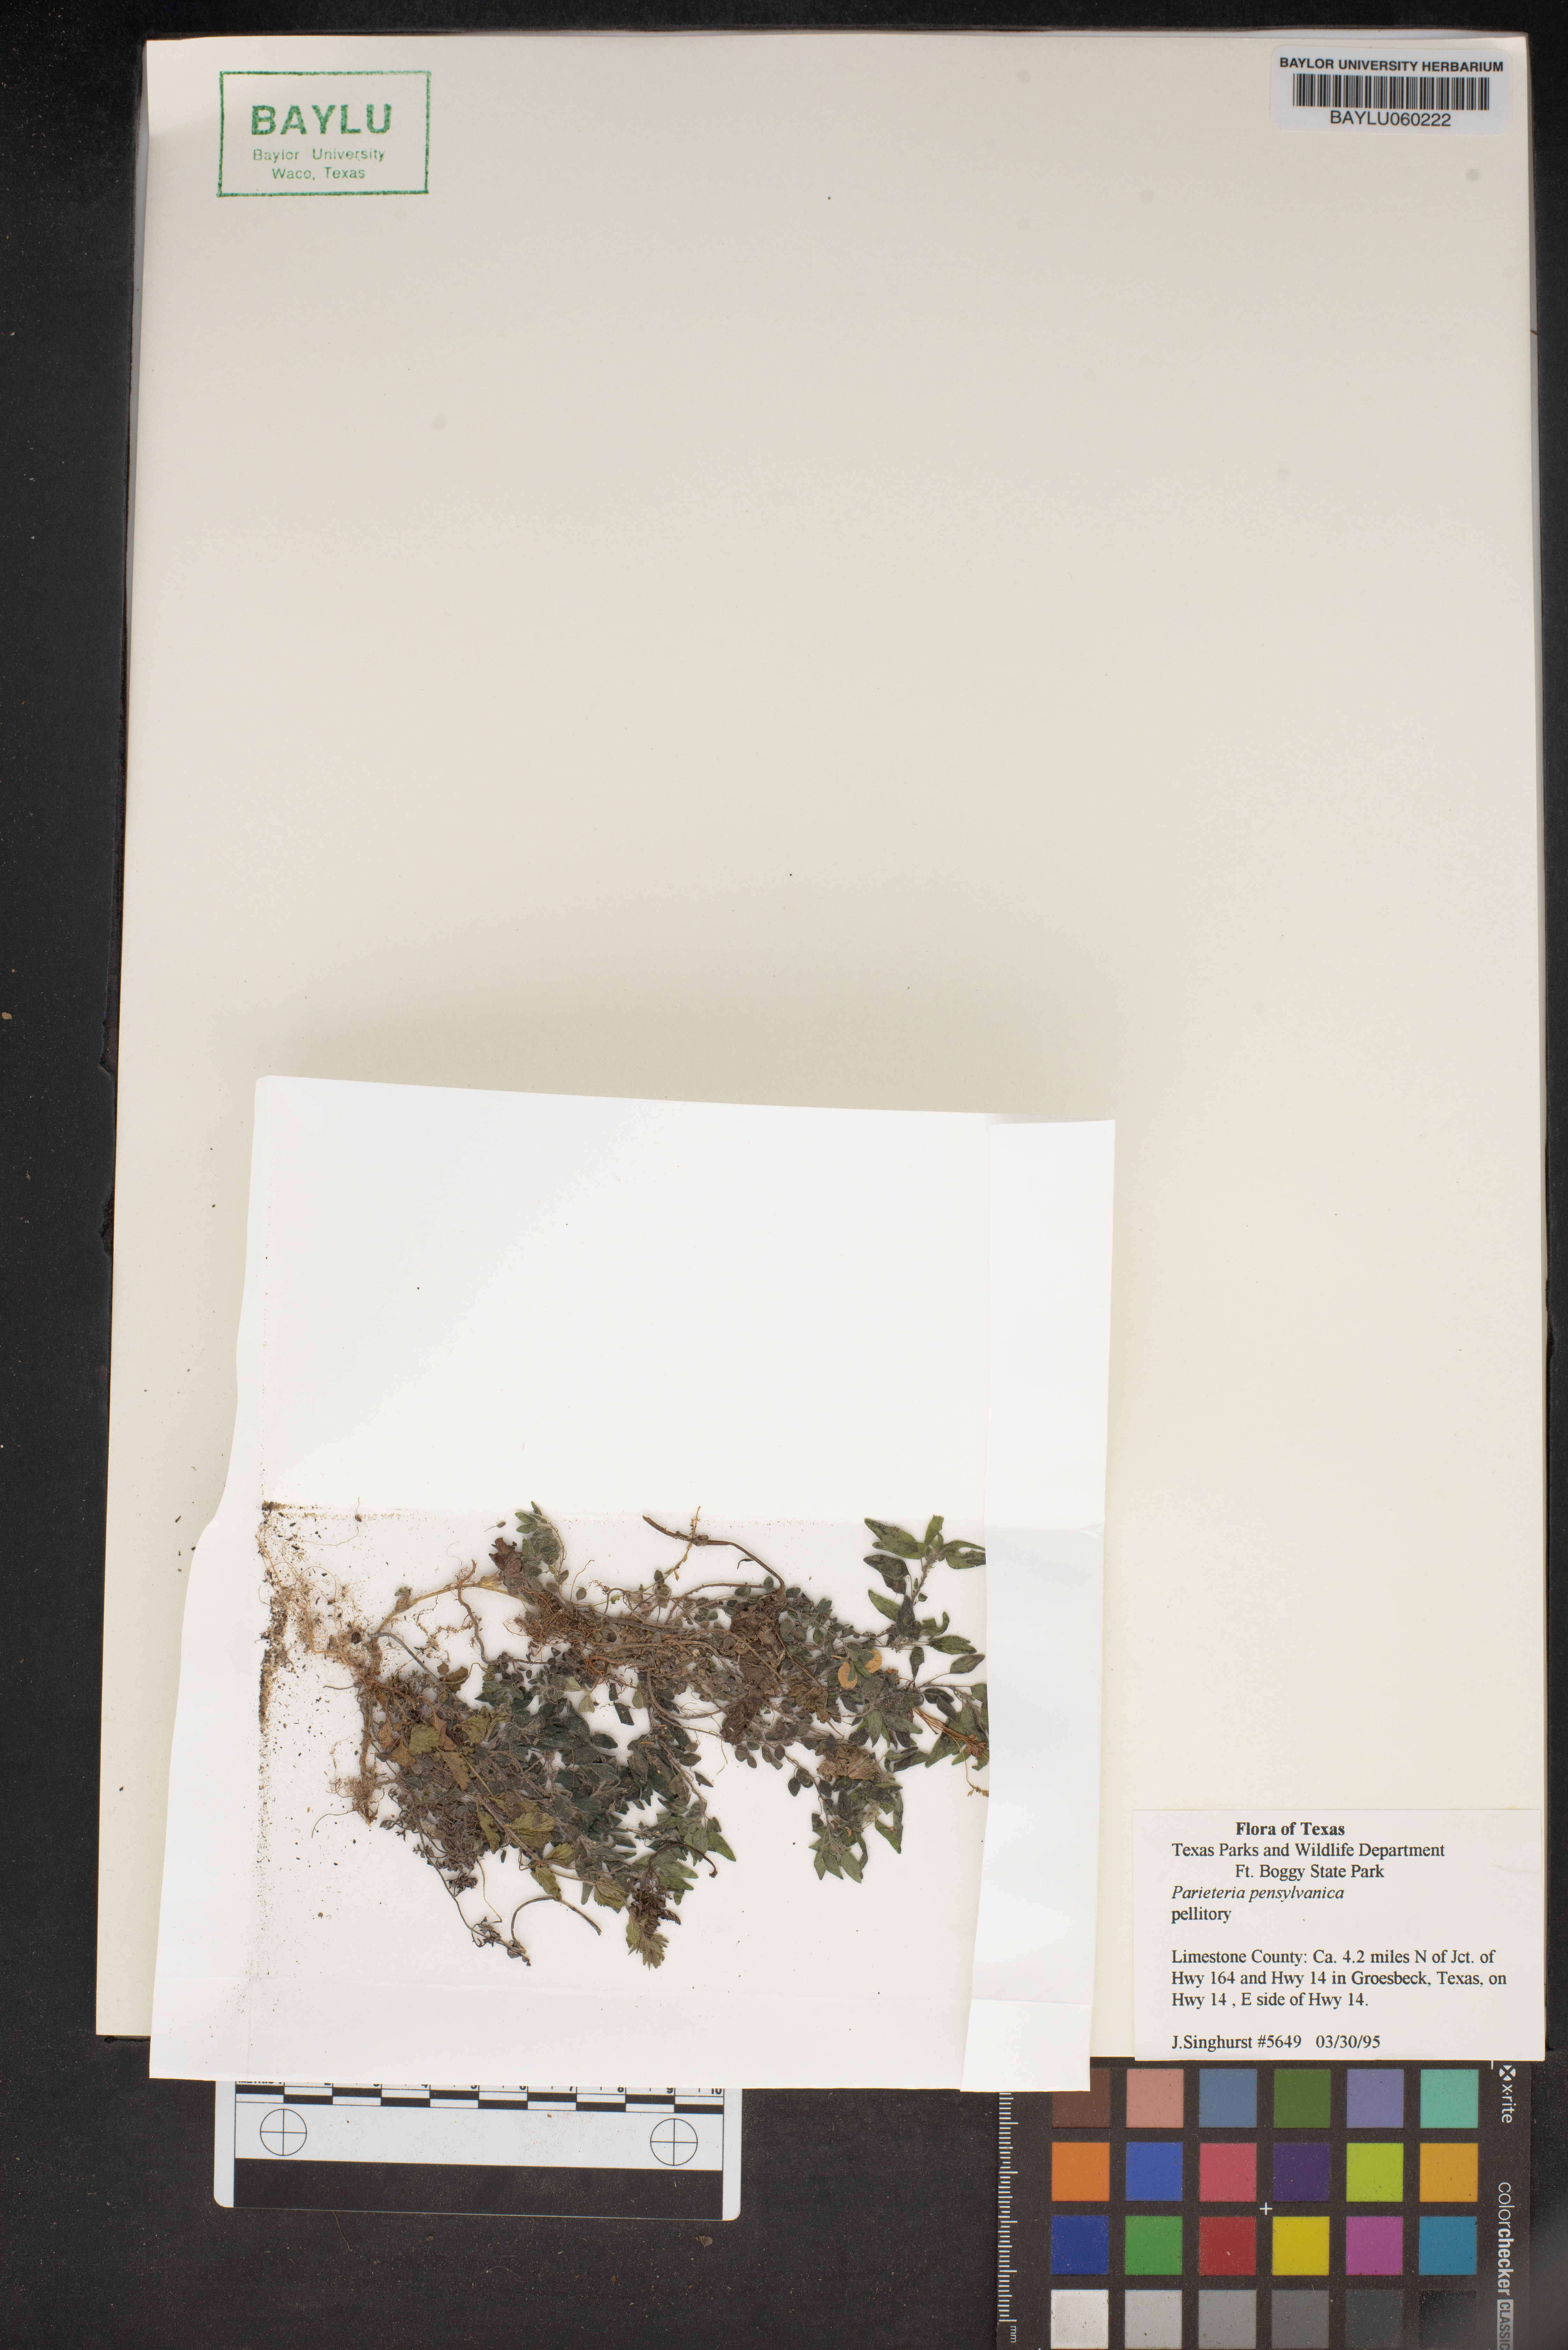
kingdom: Plantae
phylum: Tracheophyta
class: Magnoliopsida
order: Rosales
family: Urticaceae
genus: Parietaria
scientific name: Parietaria pensylvanica
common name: Pennsylvania pellitory
